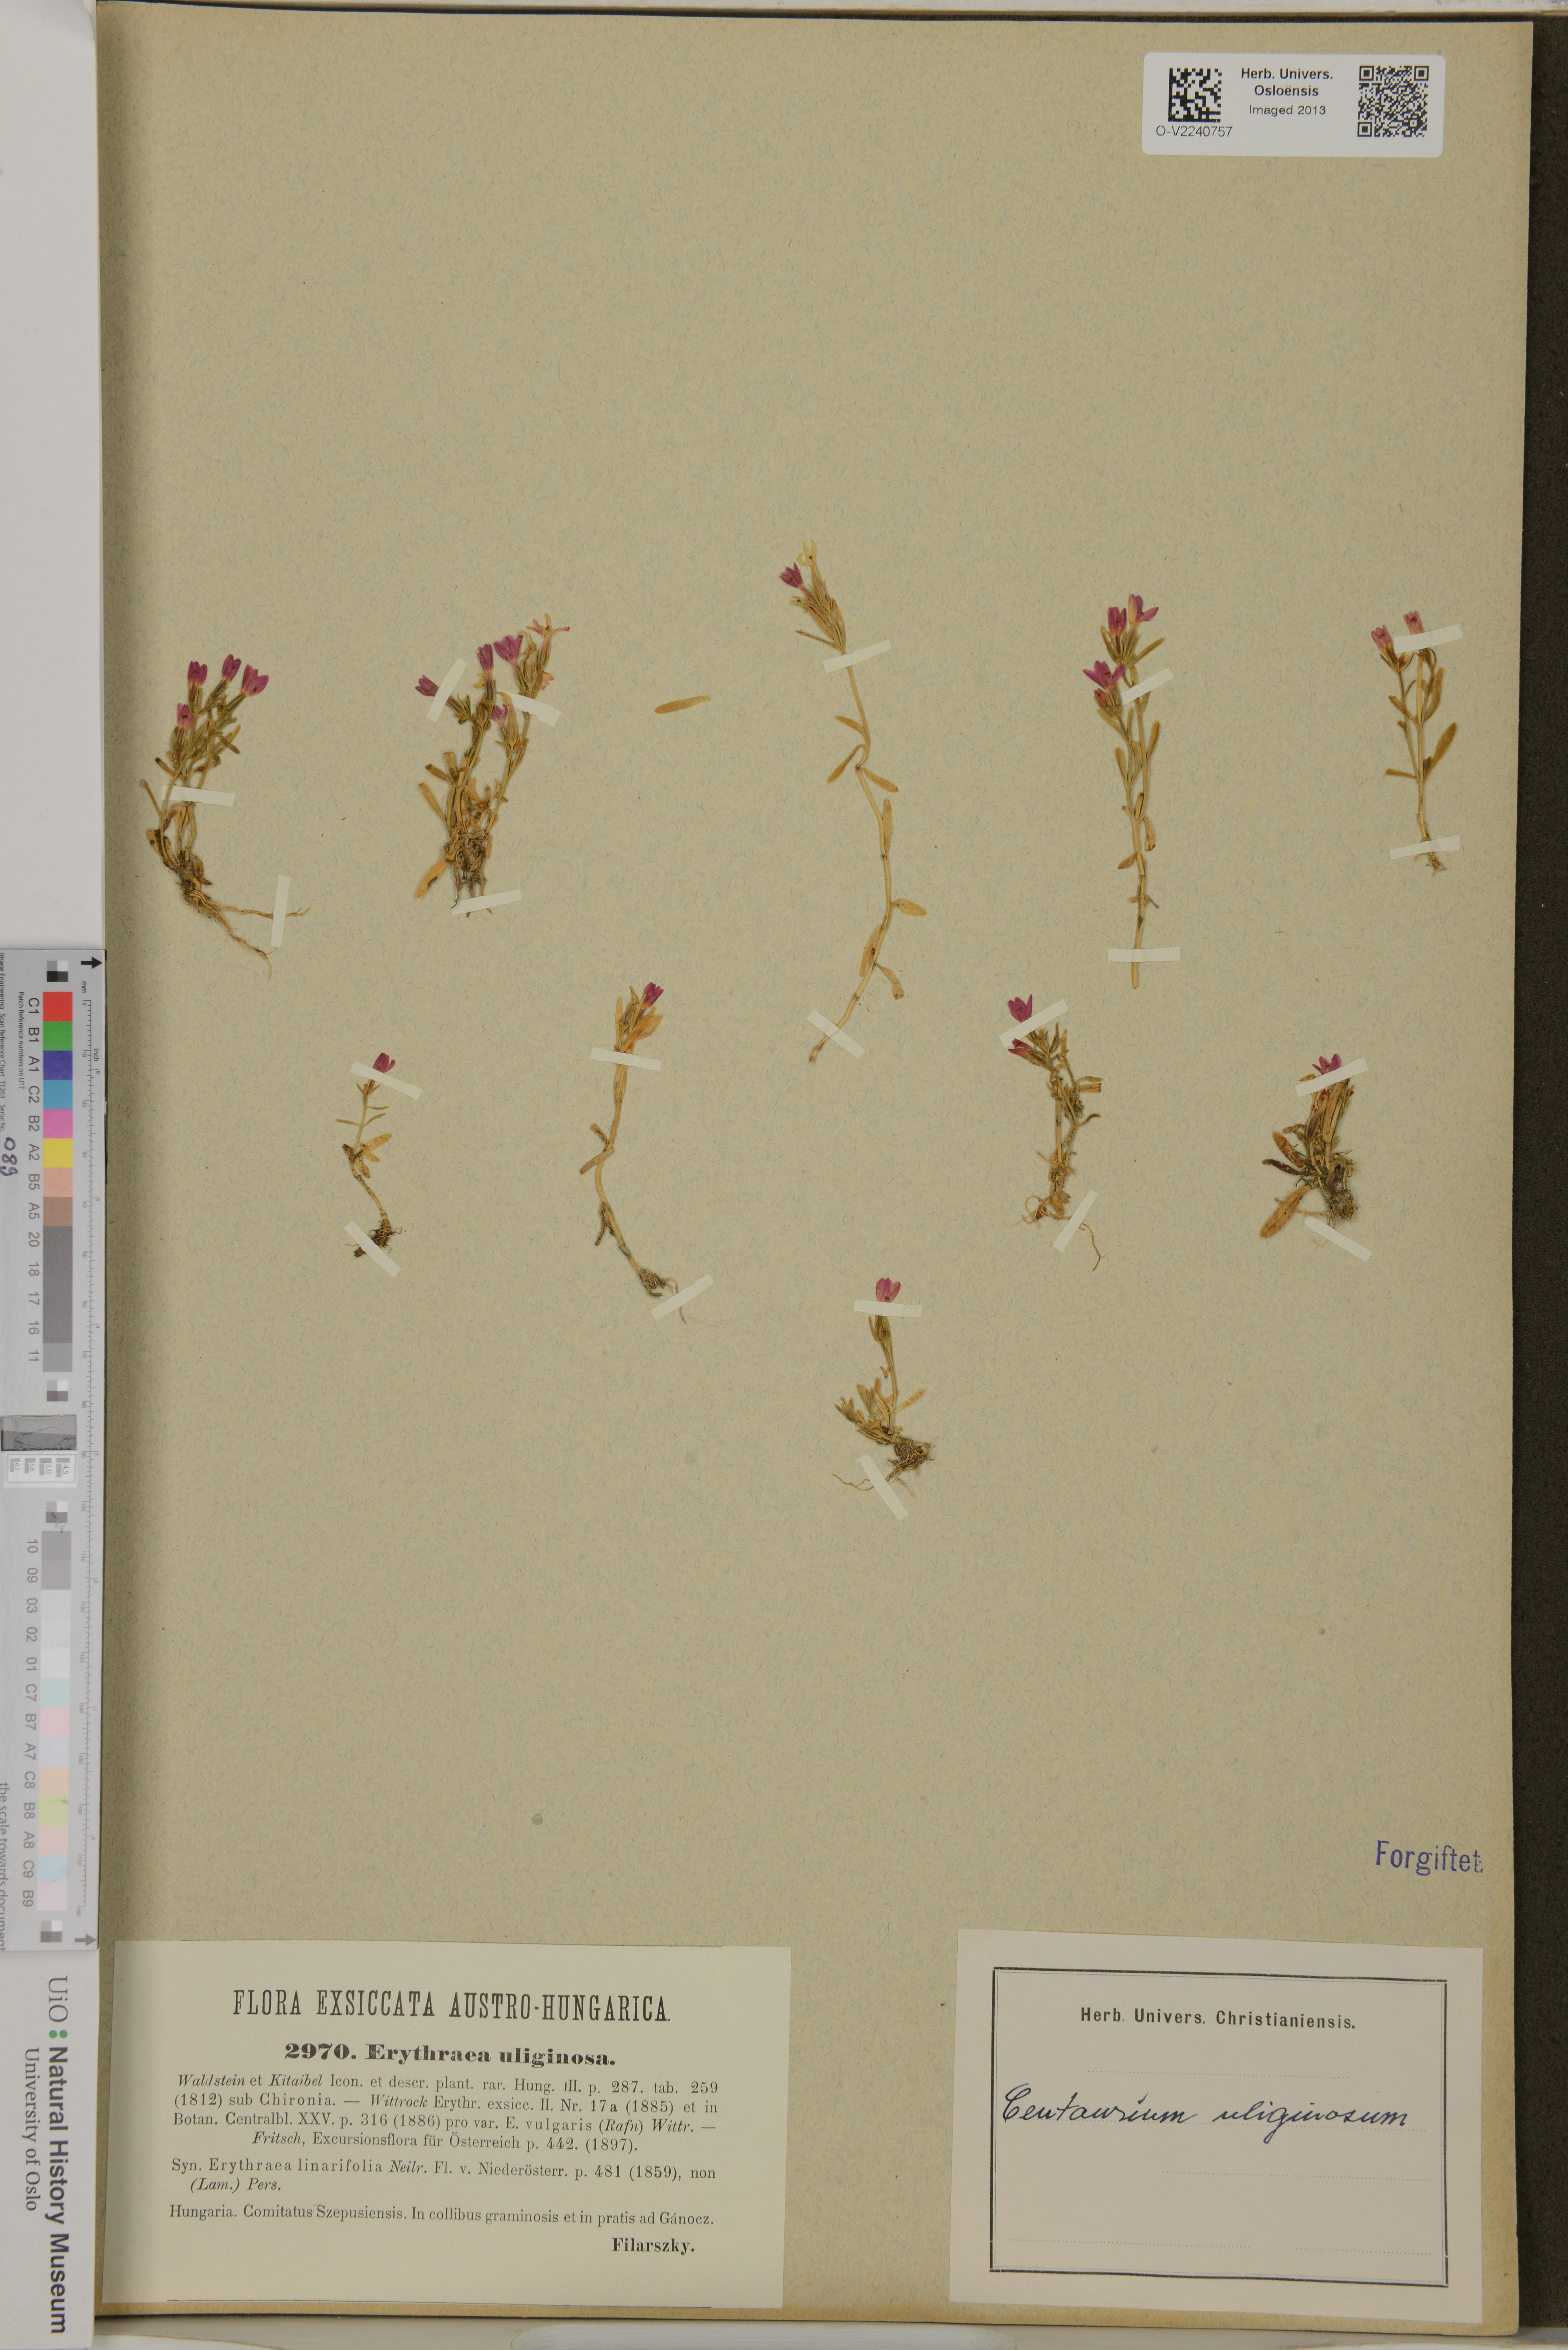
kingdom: Plantae
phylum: Tracheophyta
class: Magnoliopsida
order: Gentianales
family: Gentianaceae
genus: Centaurium
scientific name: Centaurium uliginosum
